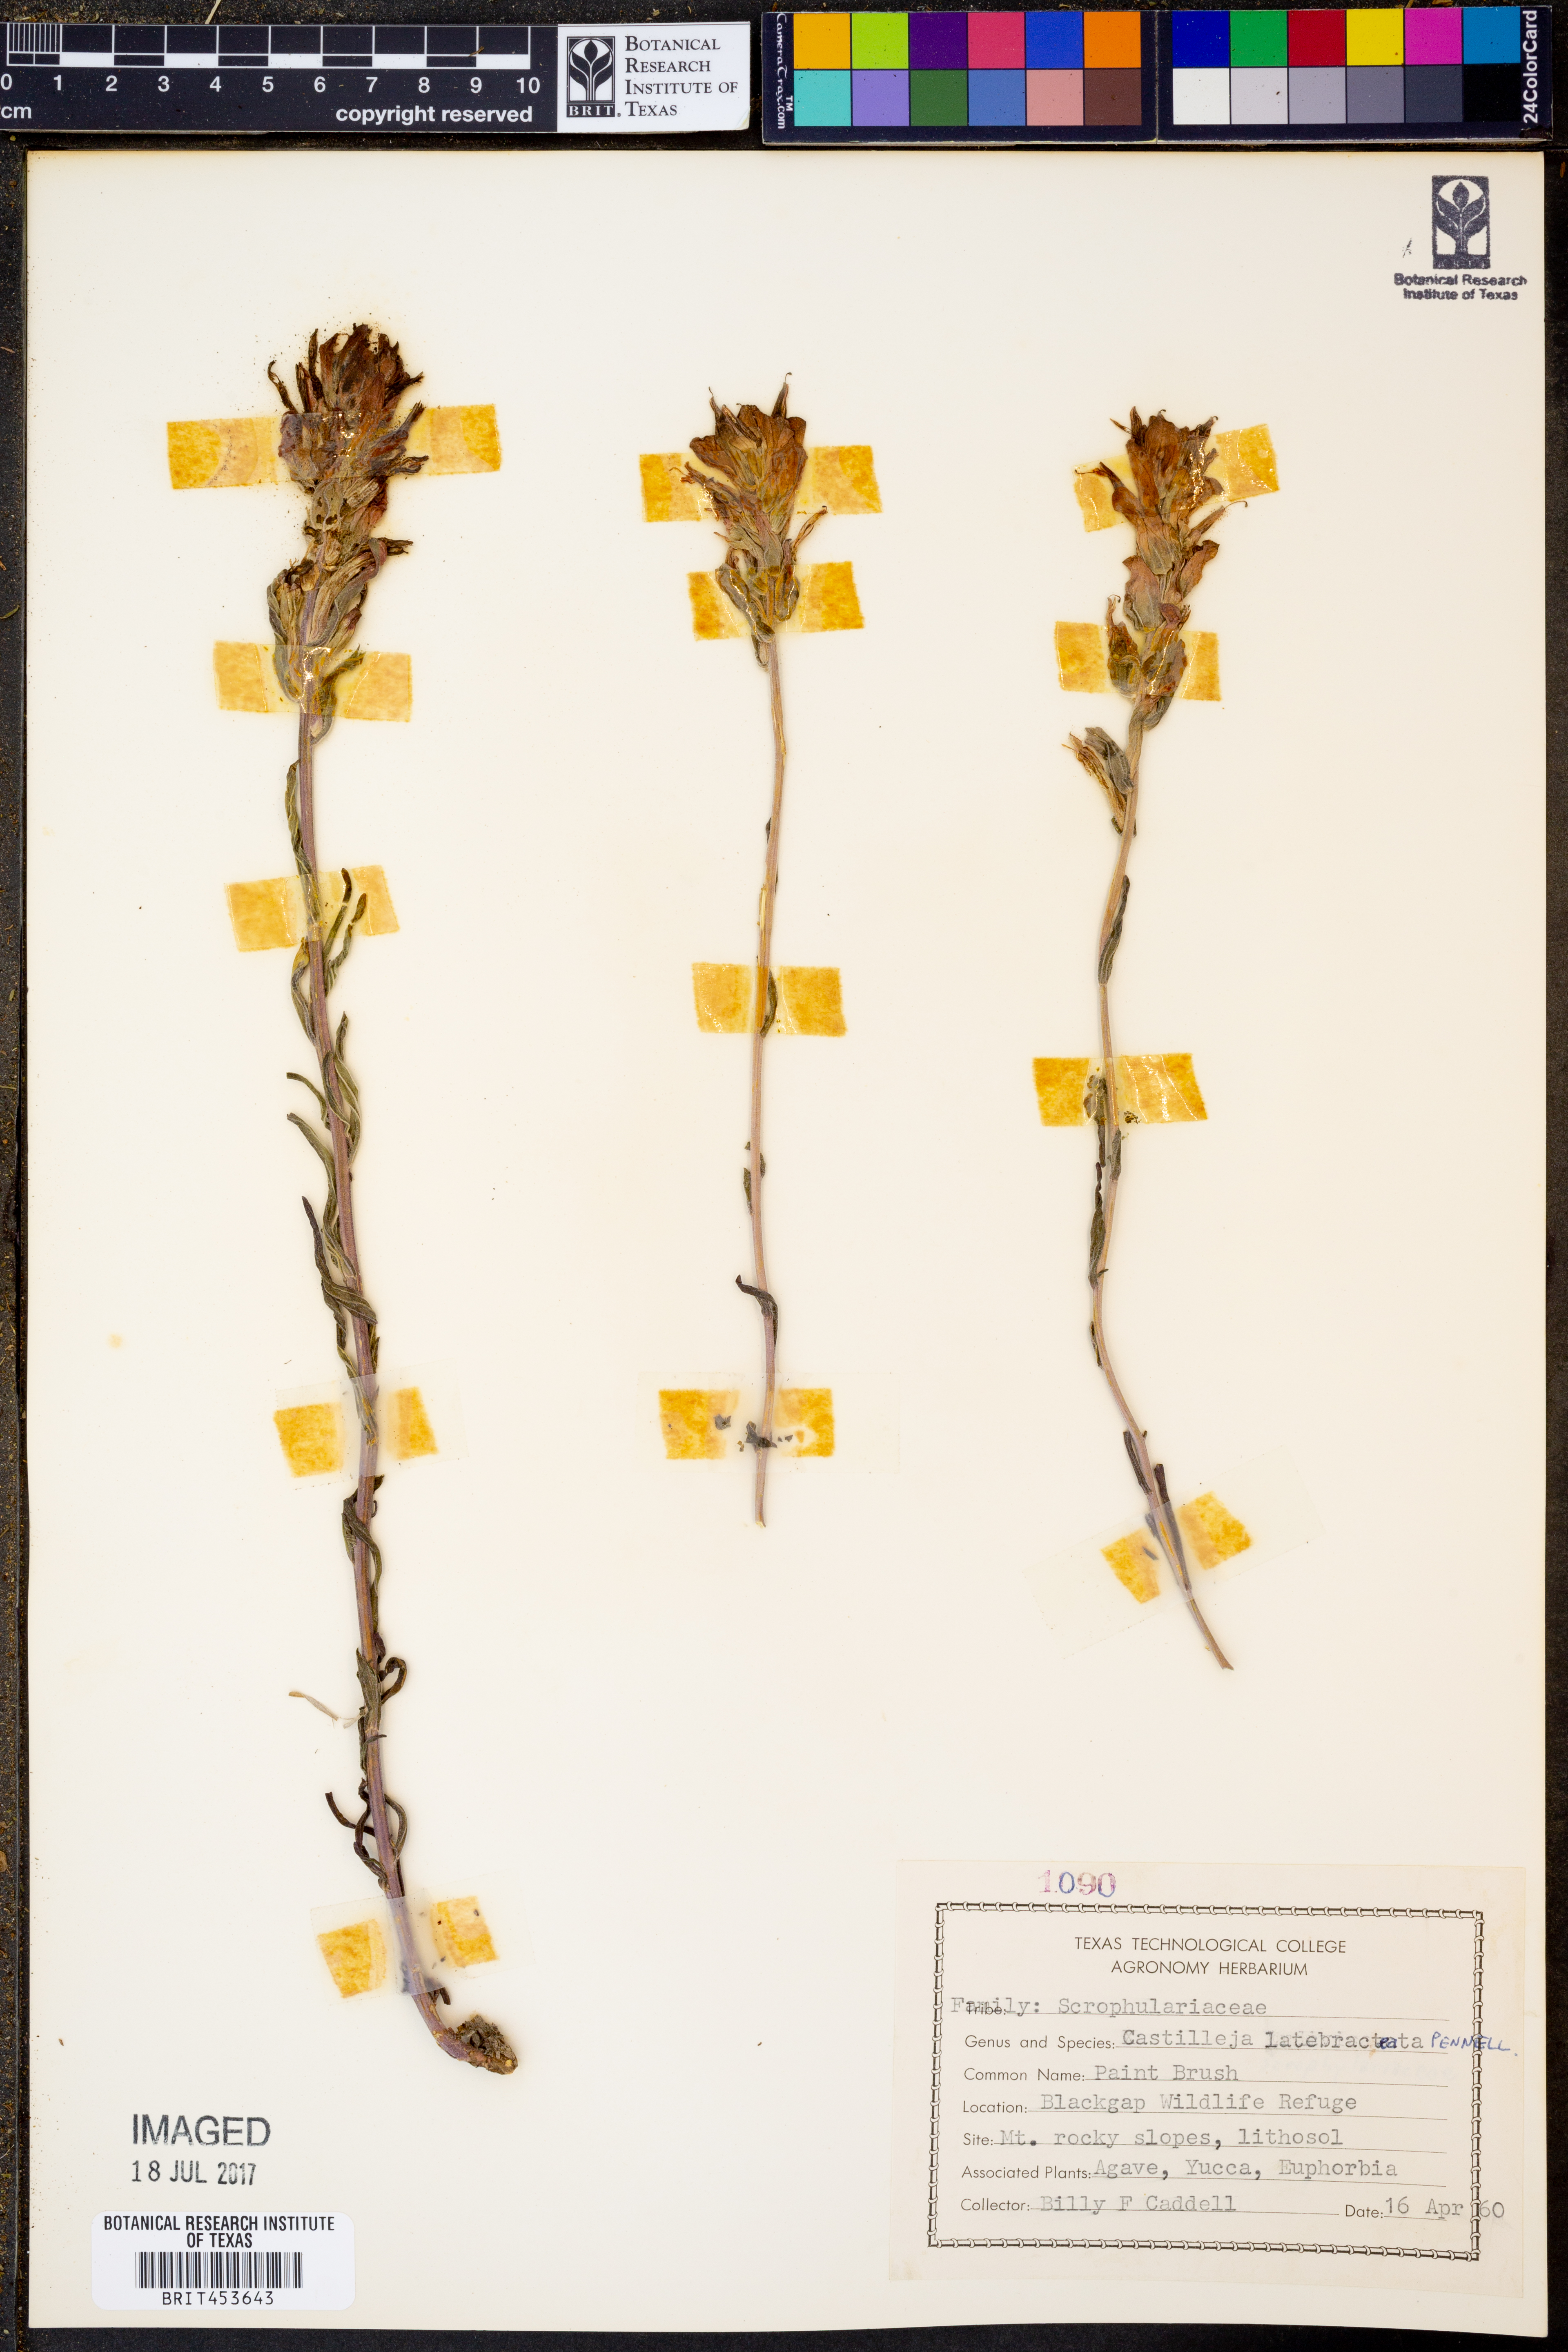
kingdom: Plantae
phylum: Tracheophyta
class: Magnoliopsida
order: Lamiales
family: Orobanchaceae
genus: Castilleja
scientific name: Castilleja rigida
